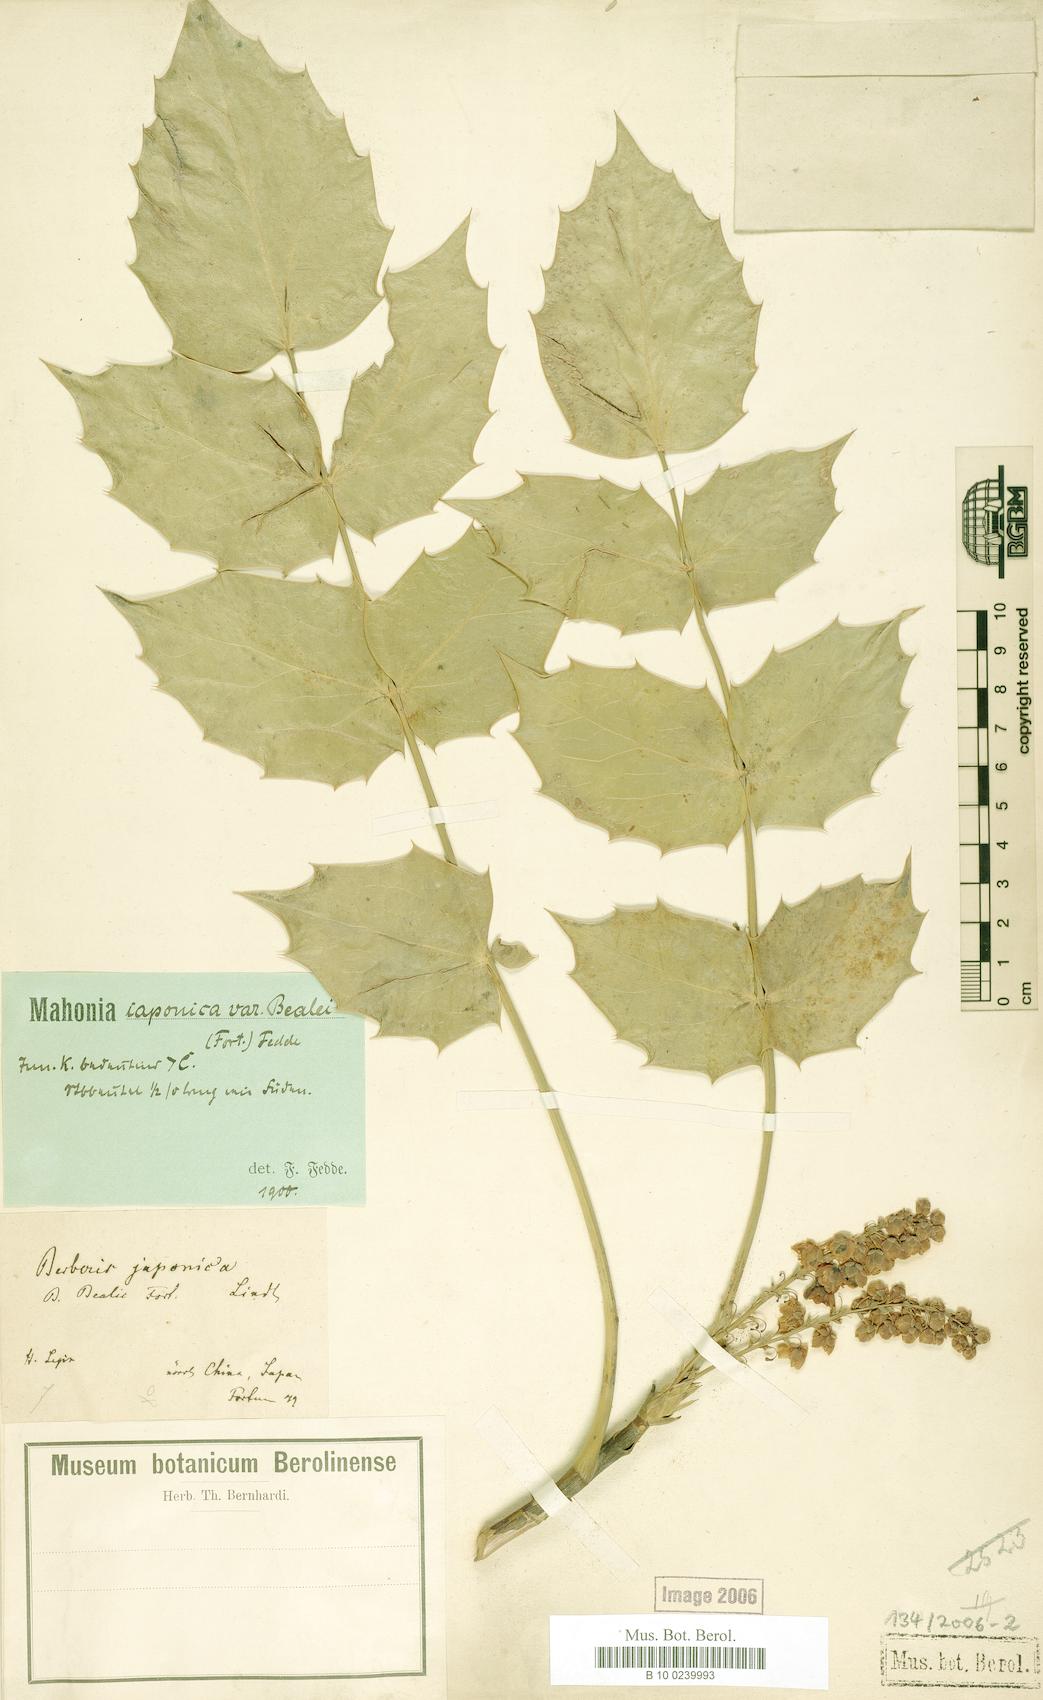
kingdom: Plantae
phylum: Tracheophyta
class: Magnoliopsida
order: Ranunculales
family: Berberidaceae
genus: Mahonia
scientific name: Mahonia bealei
